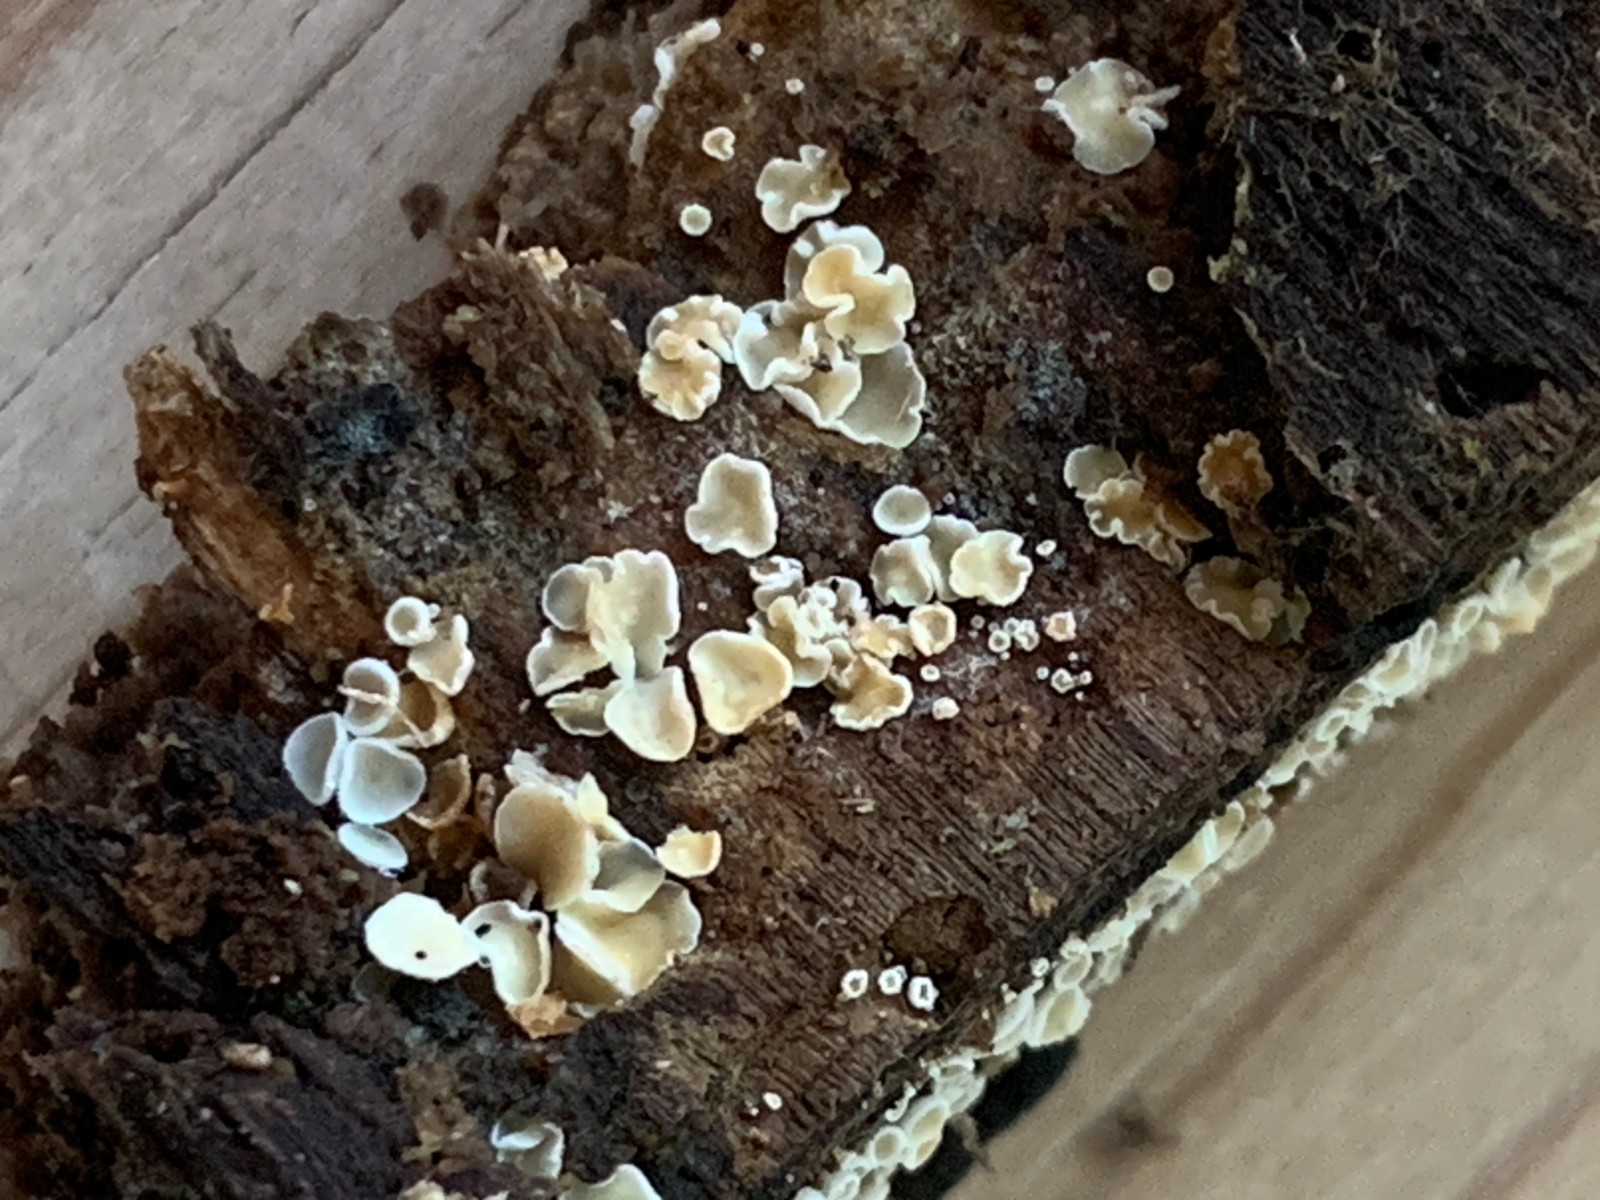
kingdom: Fungi
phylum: Ascomycota
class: Leotiomycetes
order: Helotiales
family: Lachnaceae
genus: Lachnum
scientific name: Lachnum impudicum
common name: vinter-frynseskive
